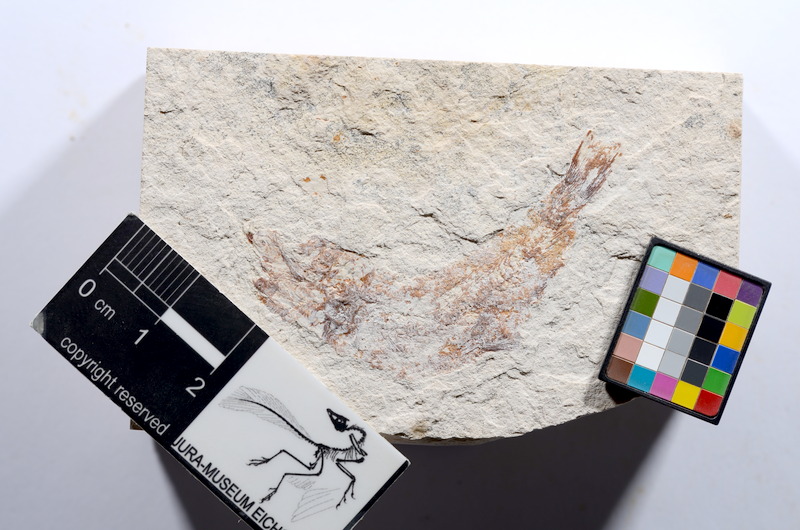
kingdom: Animalia
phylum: Chordata
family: Ascalaboidae
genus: Tharsis
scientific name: Tharsis dubius
